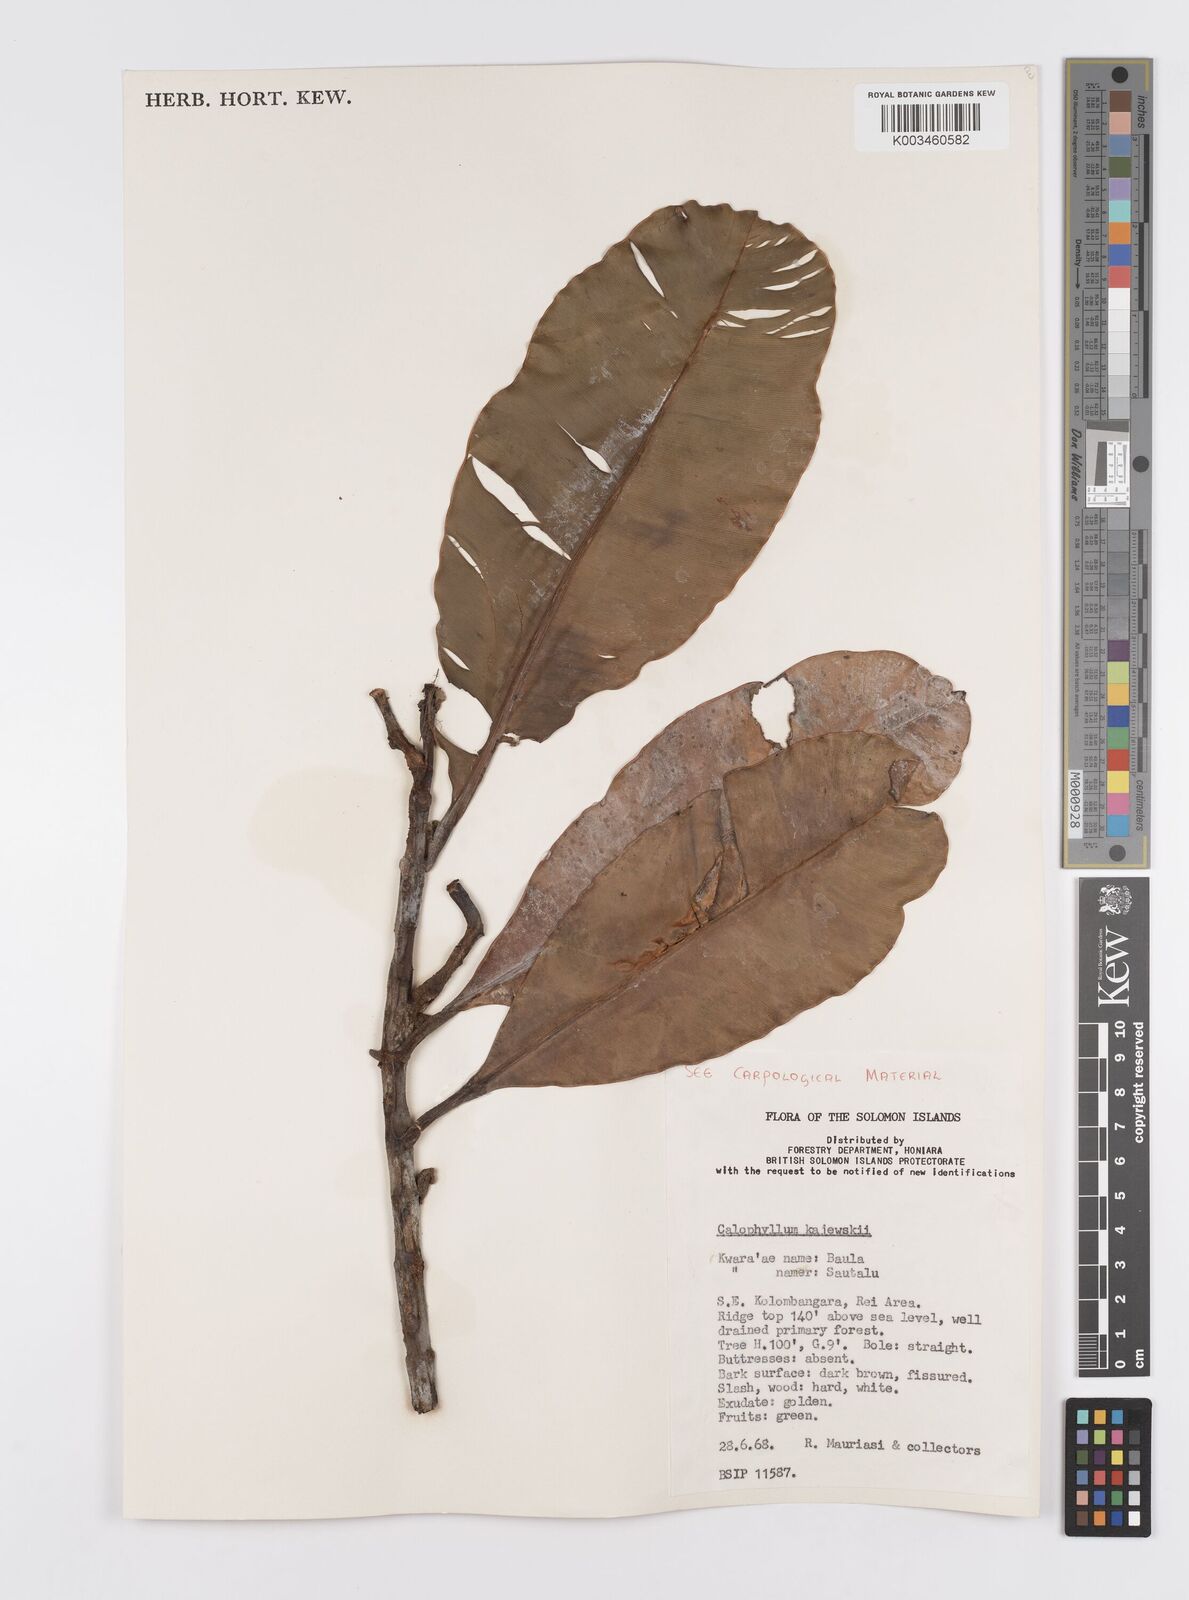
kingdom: Plantae
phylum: Tracheophyta
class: Magnoliopsida
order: Malpighiales
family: Calophyllaceae
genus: Calophyllum
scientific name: Calophyllum peekelii
